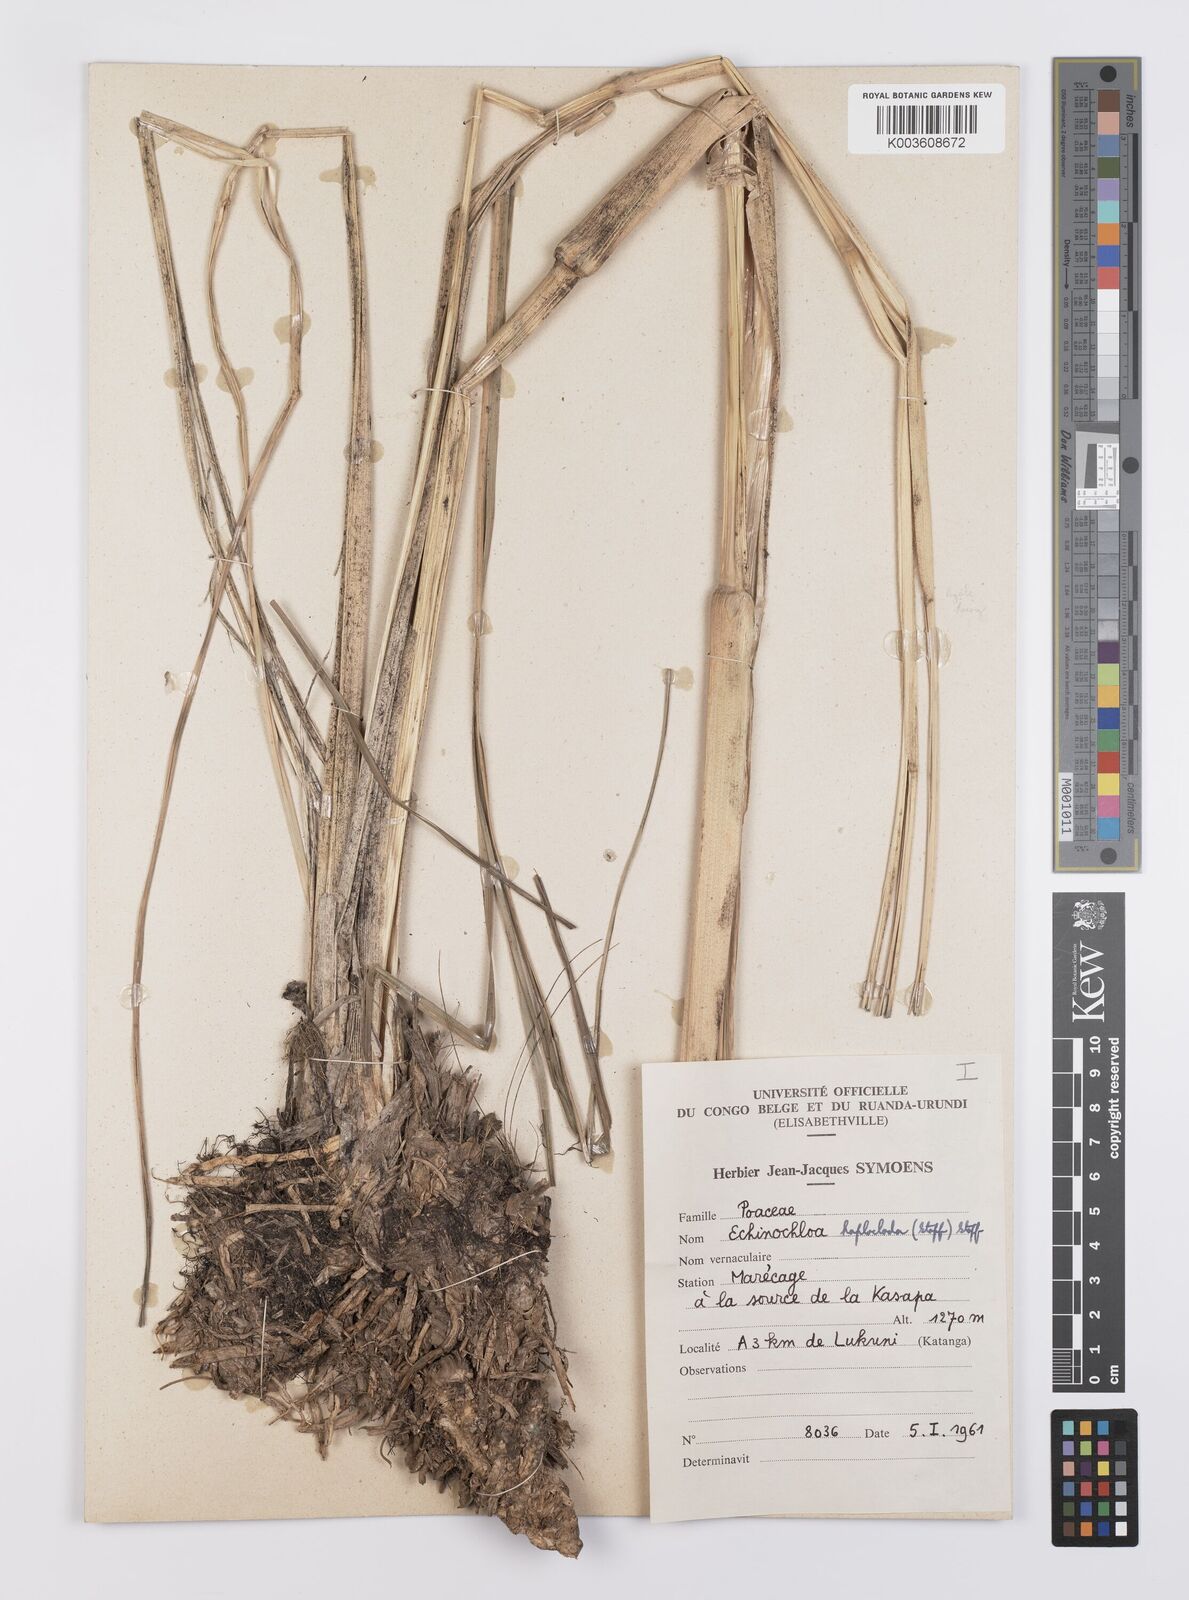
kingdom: Plantae
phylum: Tracheophyta
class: Liliopsida
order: Poales
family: Poaceae
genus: Echinochloa
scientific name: Echinochloa haploclada
